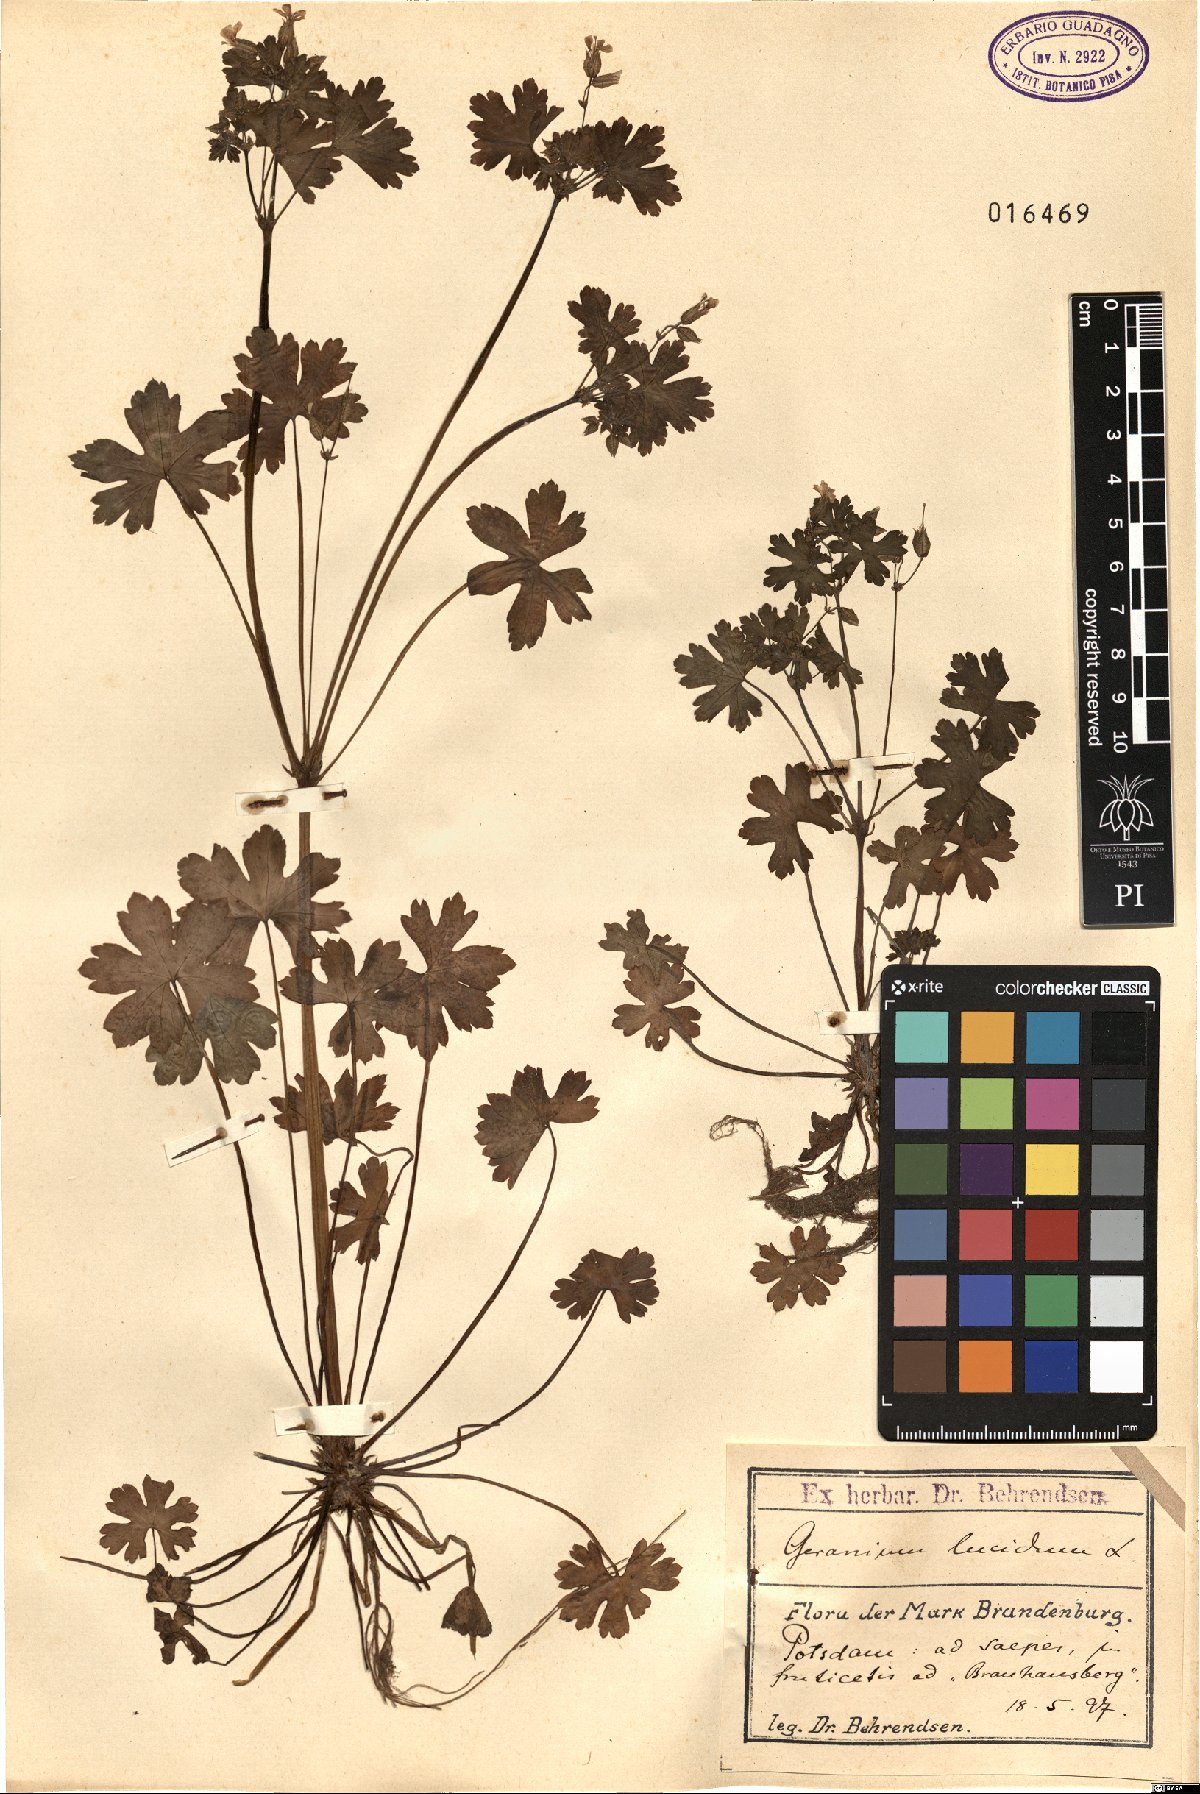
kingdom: Plantae
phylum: Tracheophyta
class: Magnoliopsida
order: Geraniales
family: Geraniaceae
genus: Geranium
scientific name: Geranium lucidum
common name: Shining crane's-bill
